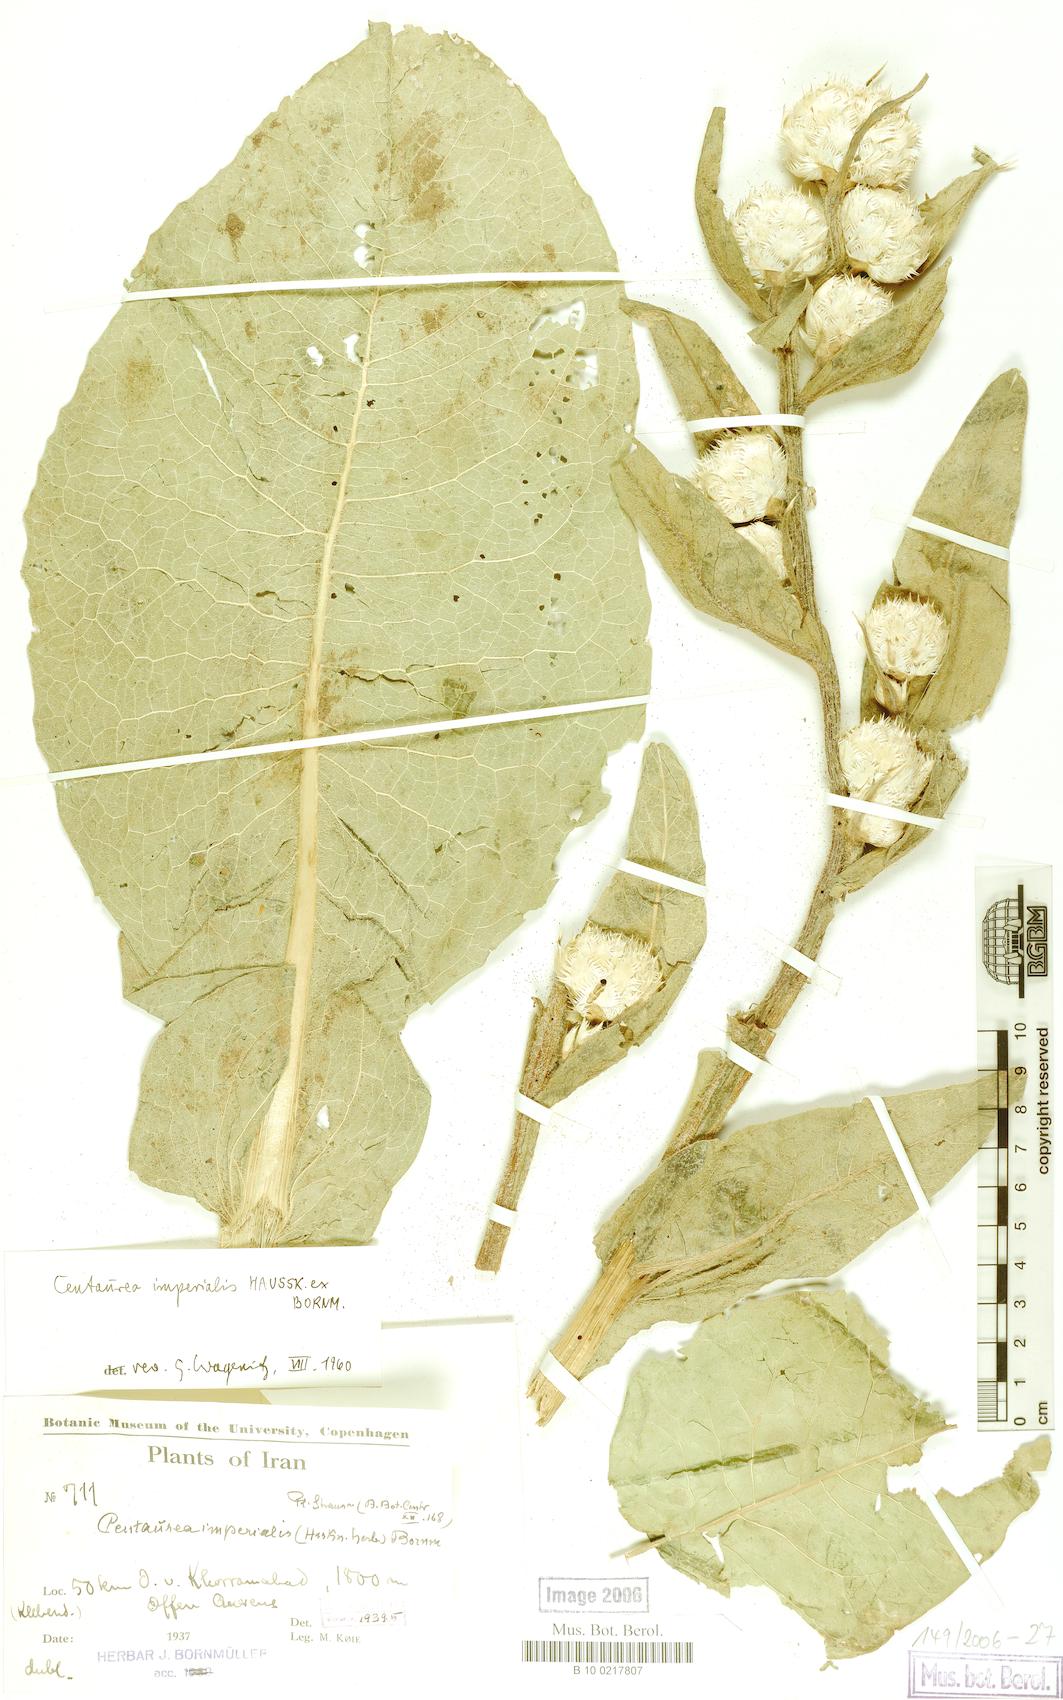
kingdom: Plantae
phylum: Tracheophyta
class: Magnoliopsida
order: Asterales
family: Asteraceae
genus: Centaurea
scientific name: Centaurea imperialis
